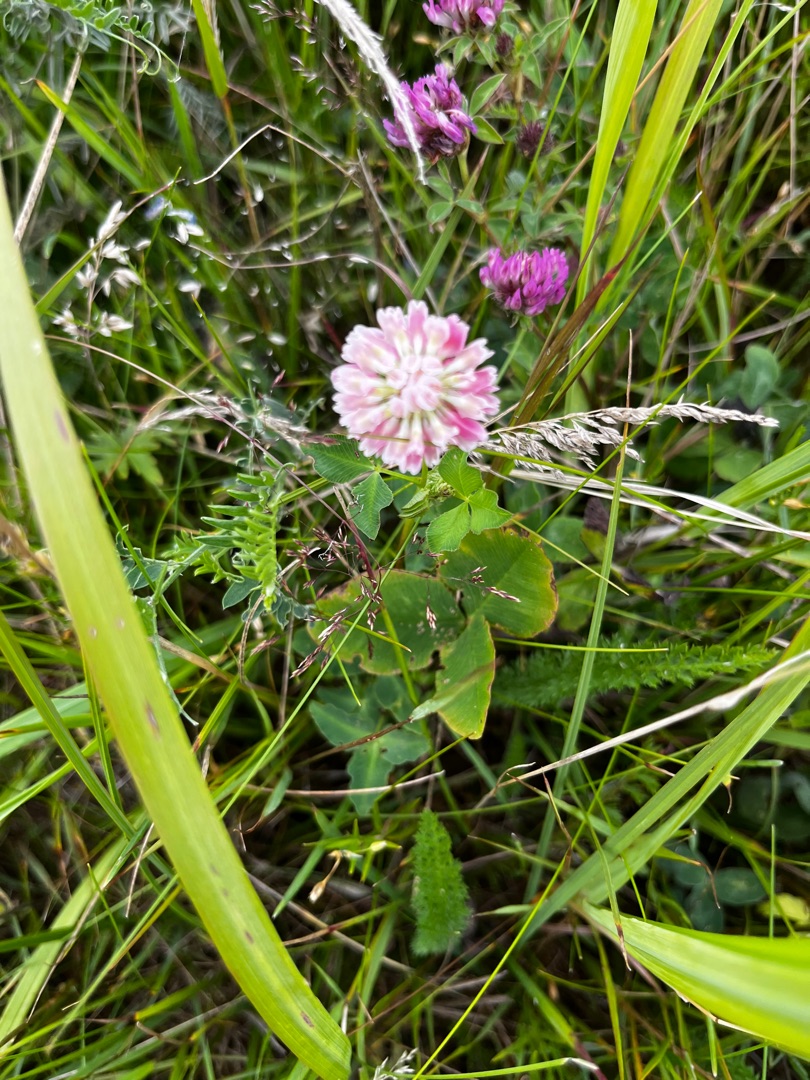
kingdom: Plantae
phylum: Tracheophyta
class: Magnoliopsida
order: Fabales
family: Fabaceae
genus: Trifolium
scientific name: Trifolium hybridum
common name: Alsike-kløver
